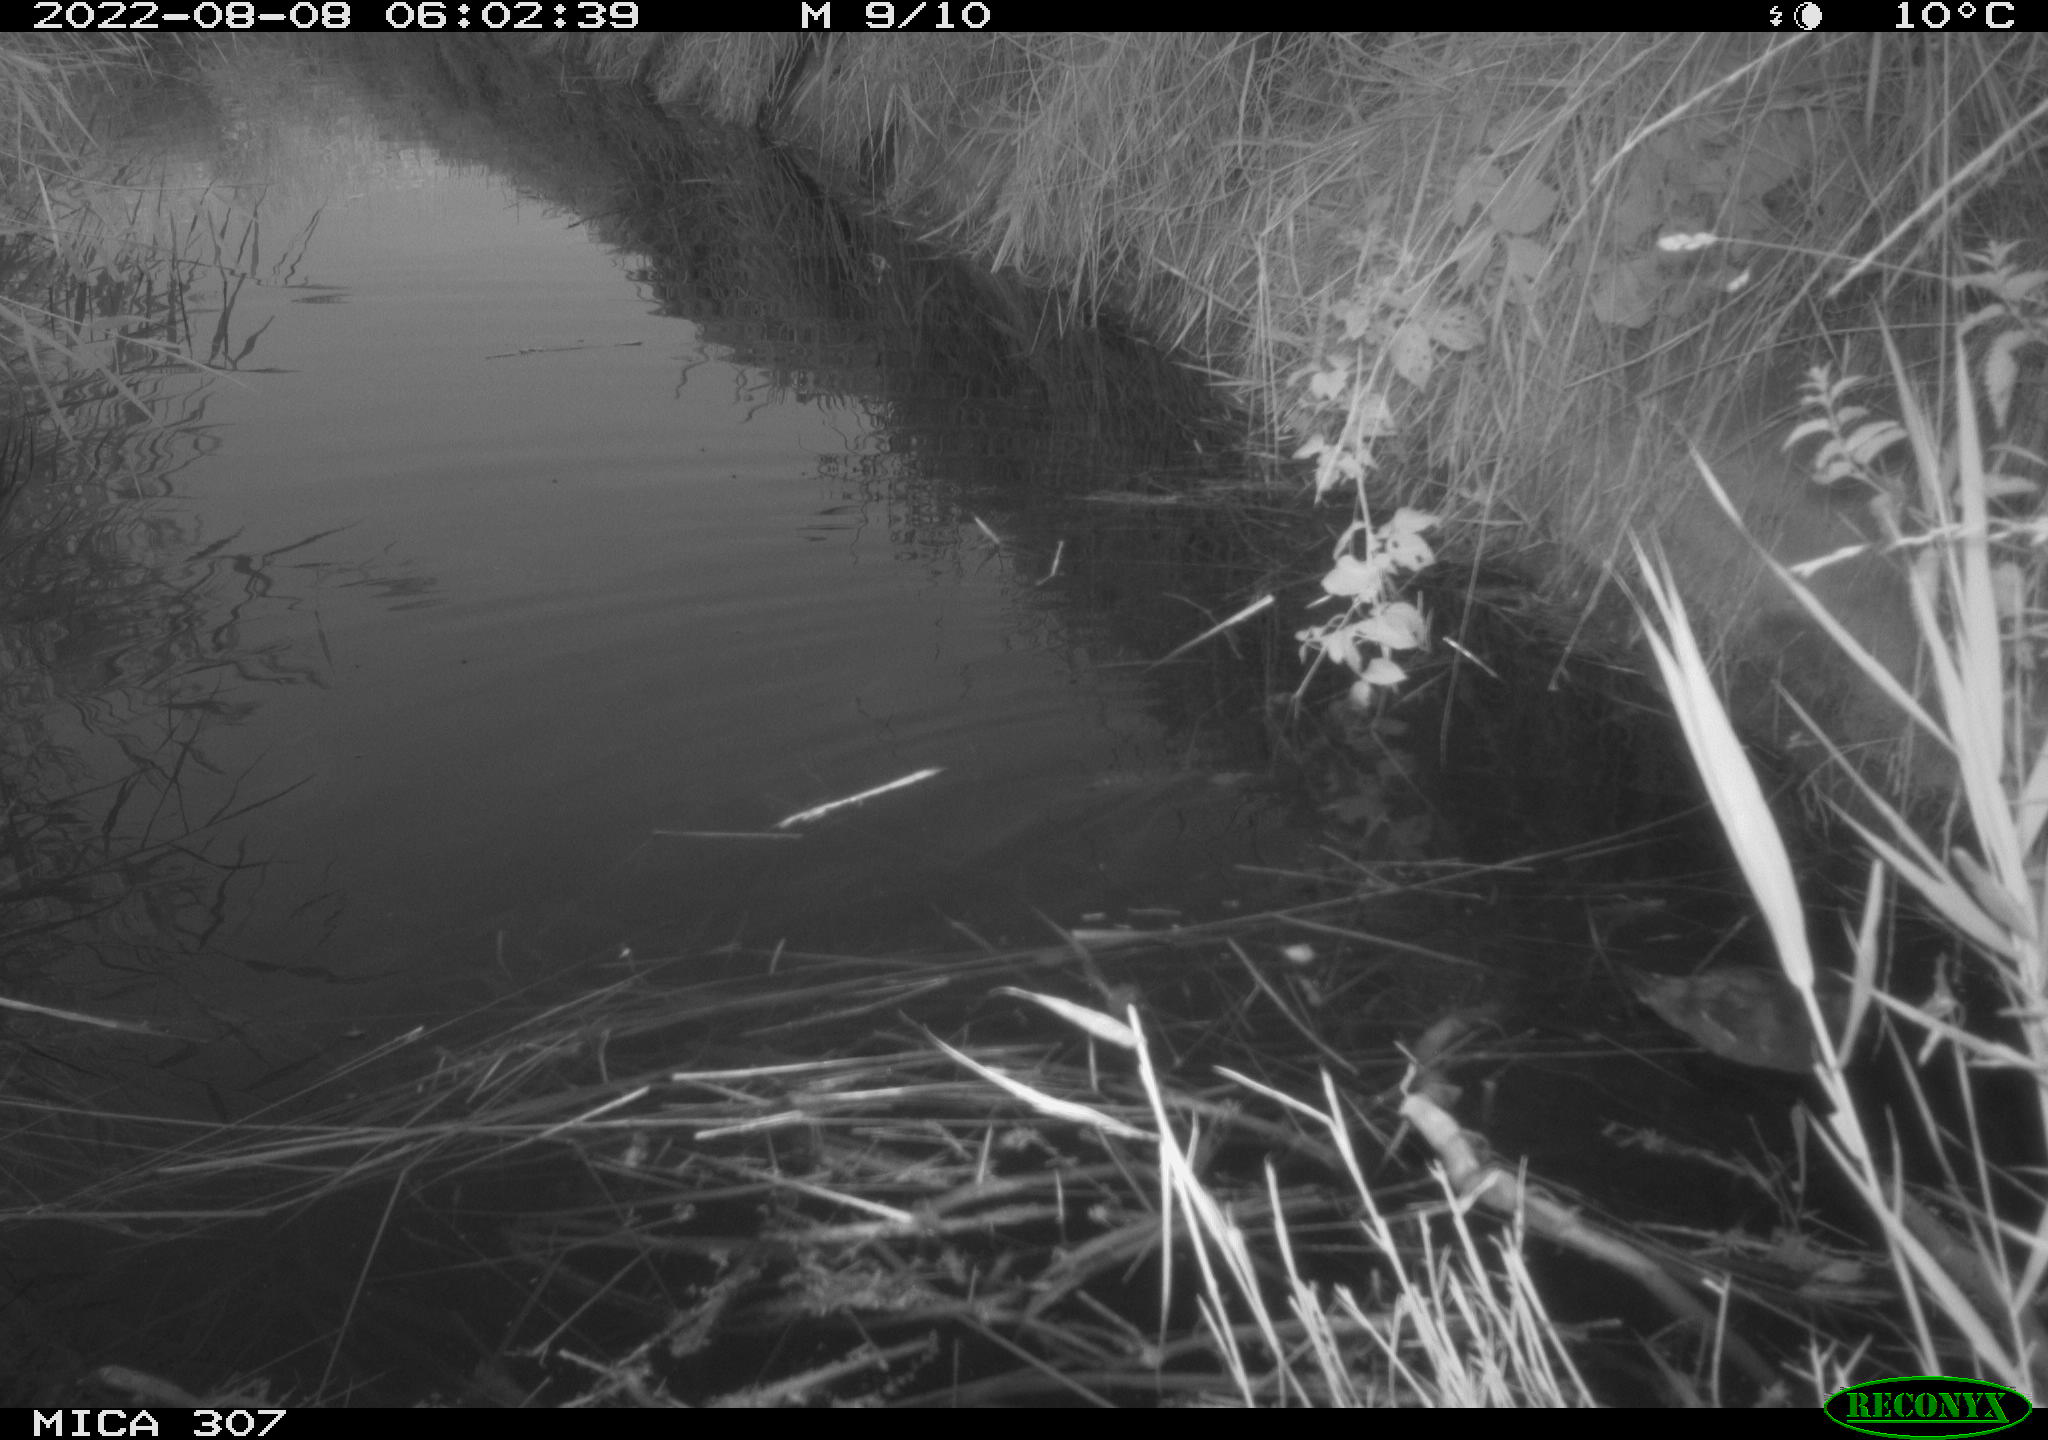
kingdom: Animalia
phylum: Chordata
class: Aves
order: Gruiformes
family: Rallidae
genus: Gallinula
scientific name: Gallinula chloropus
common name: Common moorhen
